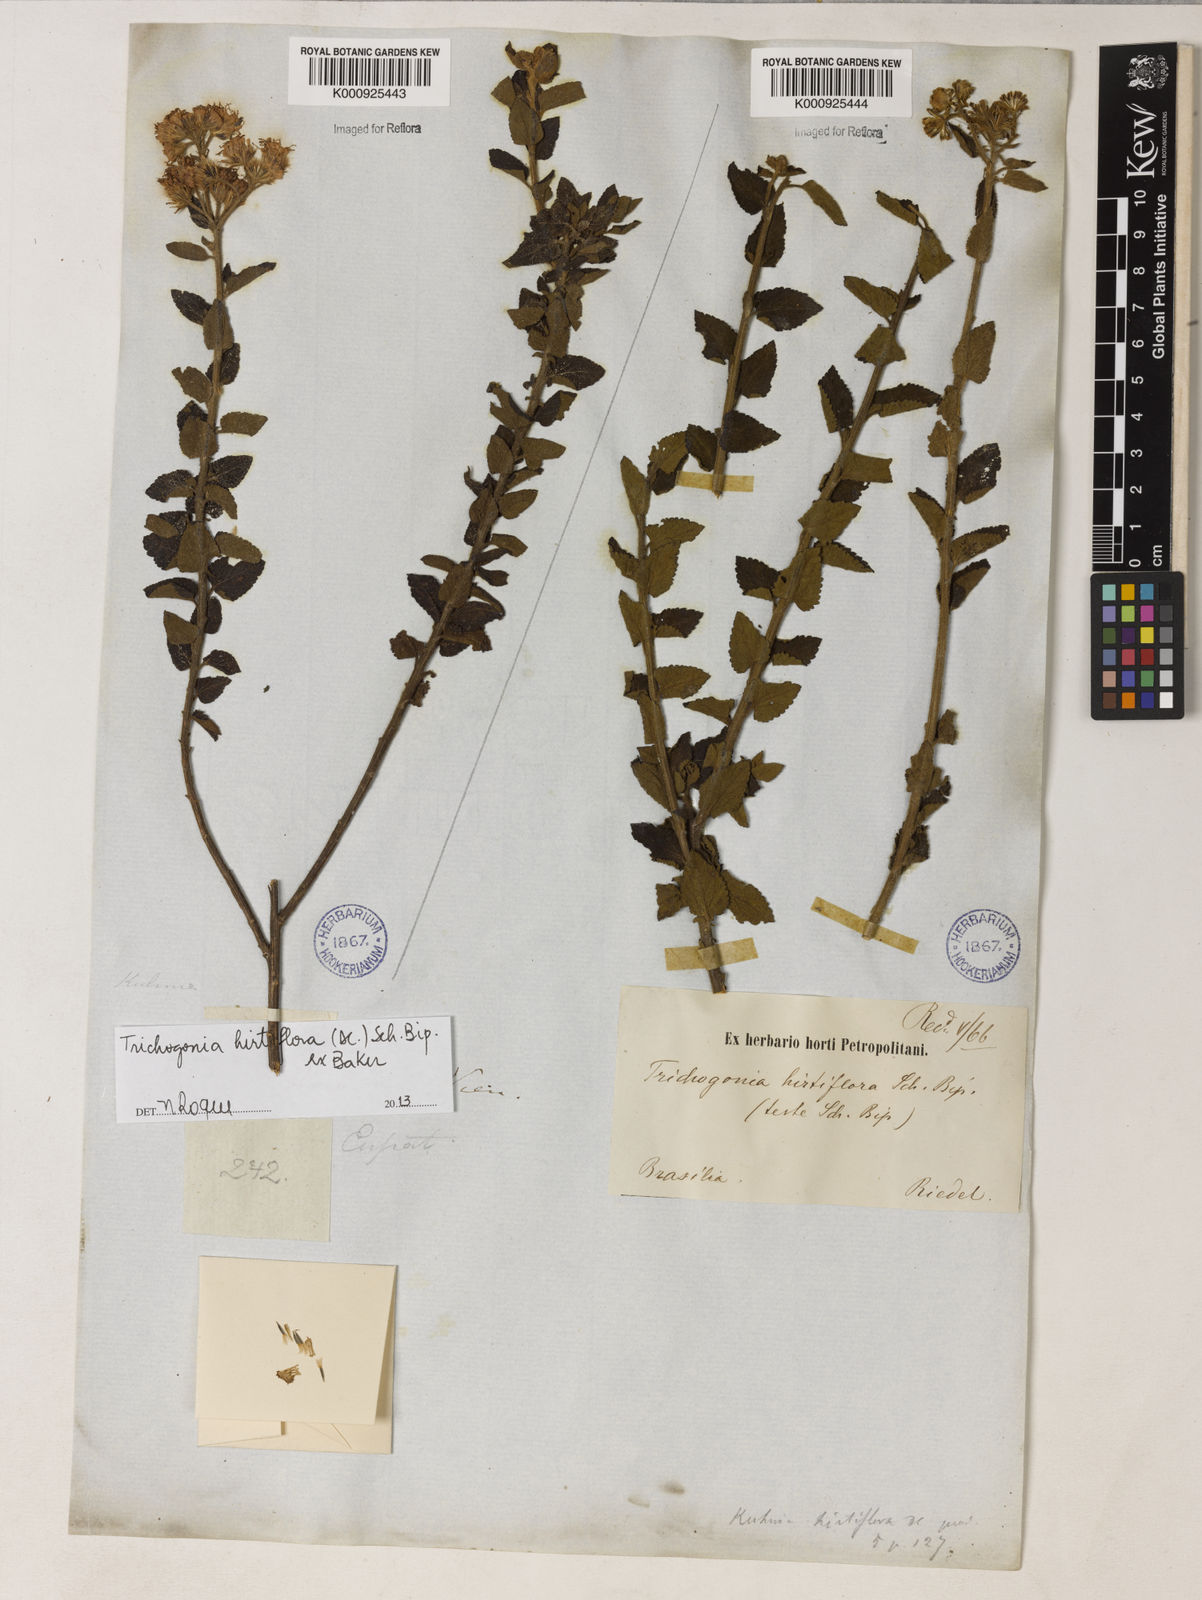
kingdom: Plantae
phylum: Tracheophyta
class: Magnoliopsida
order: Asterales
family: Asteraceae
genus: Trichogonia
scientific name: Trichogonia hirtiflora
